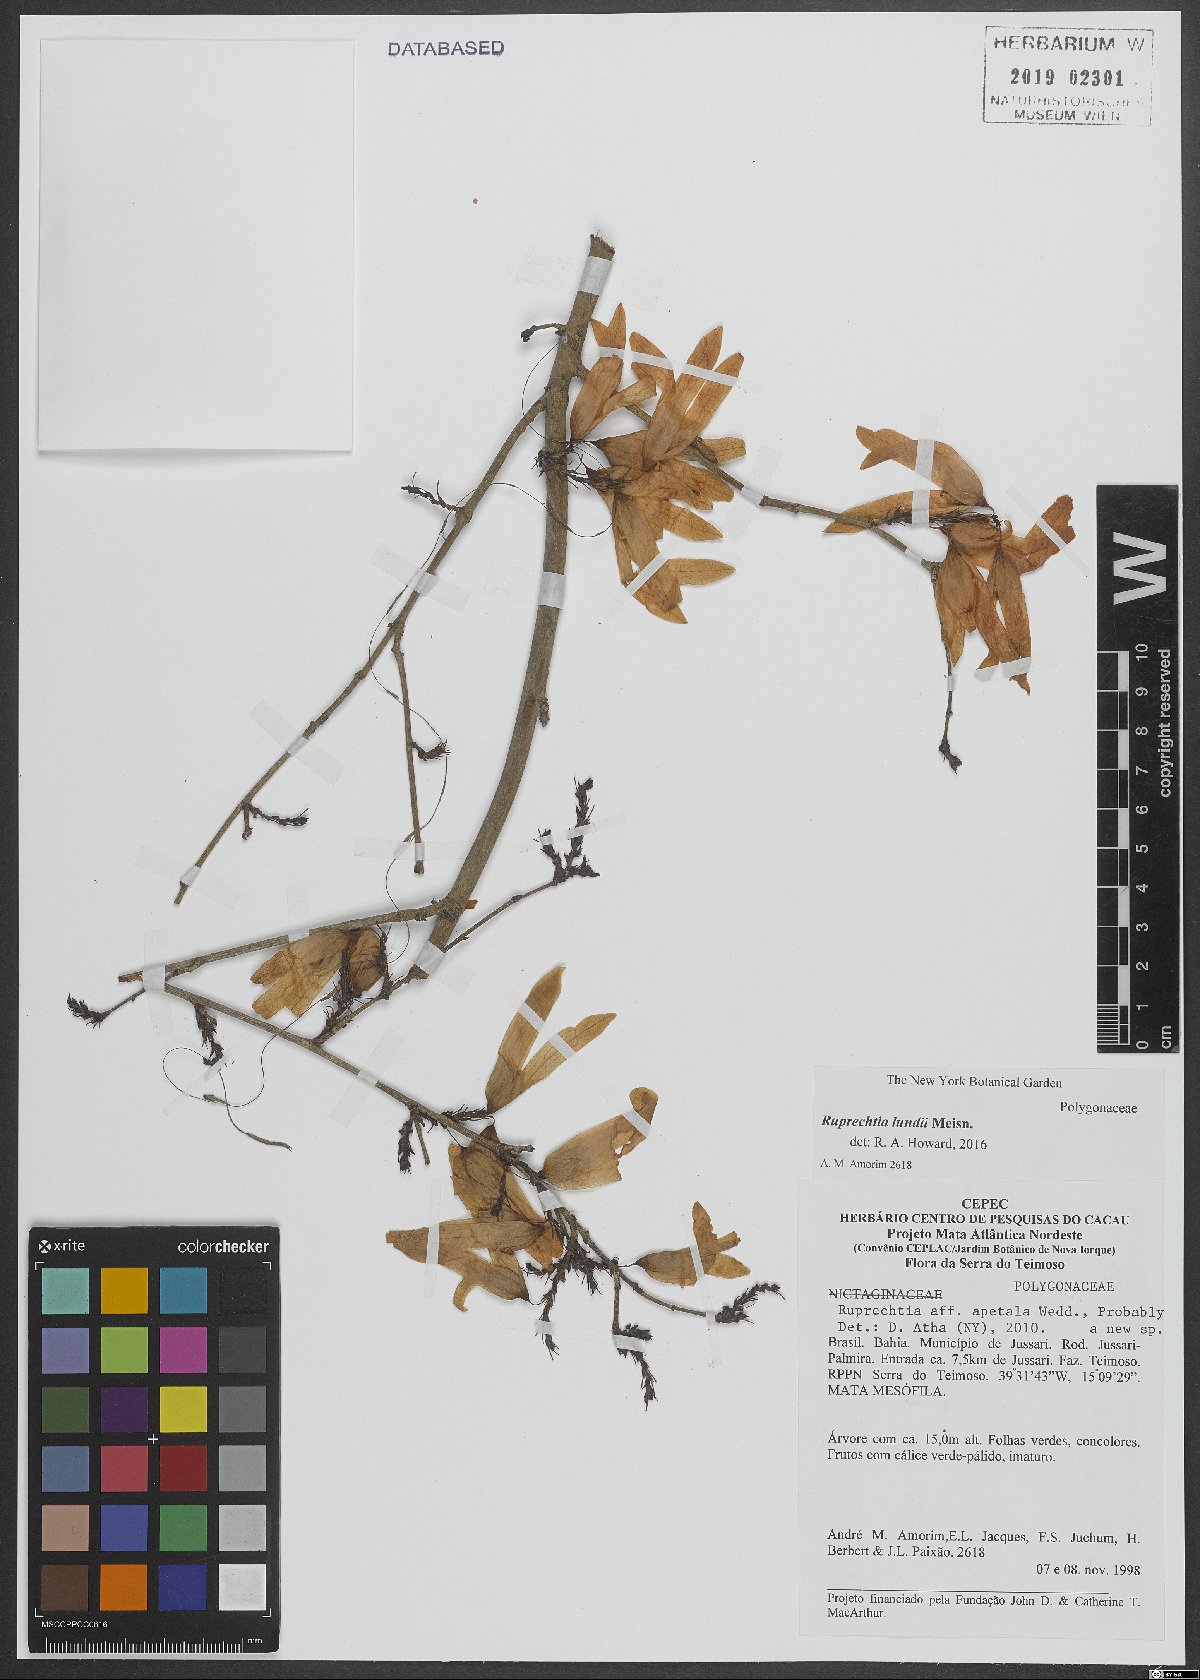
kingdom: Plantae
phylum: Tracheophyta
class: Magnoliopsida
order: Caryophyllales
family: Polygonaceae
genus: Ruprechtia
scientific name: Ruprechtia lundii
